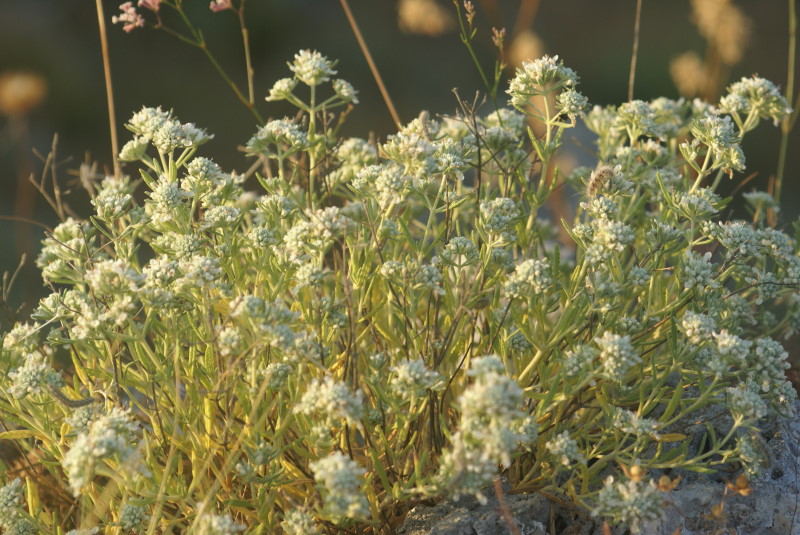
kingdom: Plantae
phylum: Tracheophyta
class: Magnoliopsida
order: Lamiales
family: Lamiaceae
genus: Teucrium
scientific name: Teucrium polium
